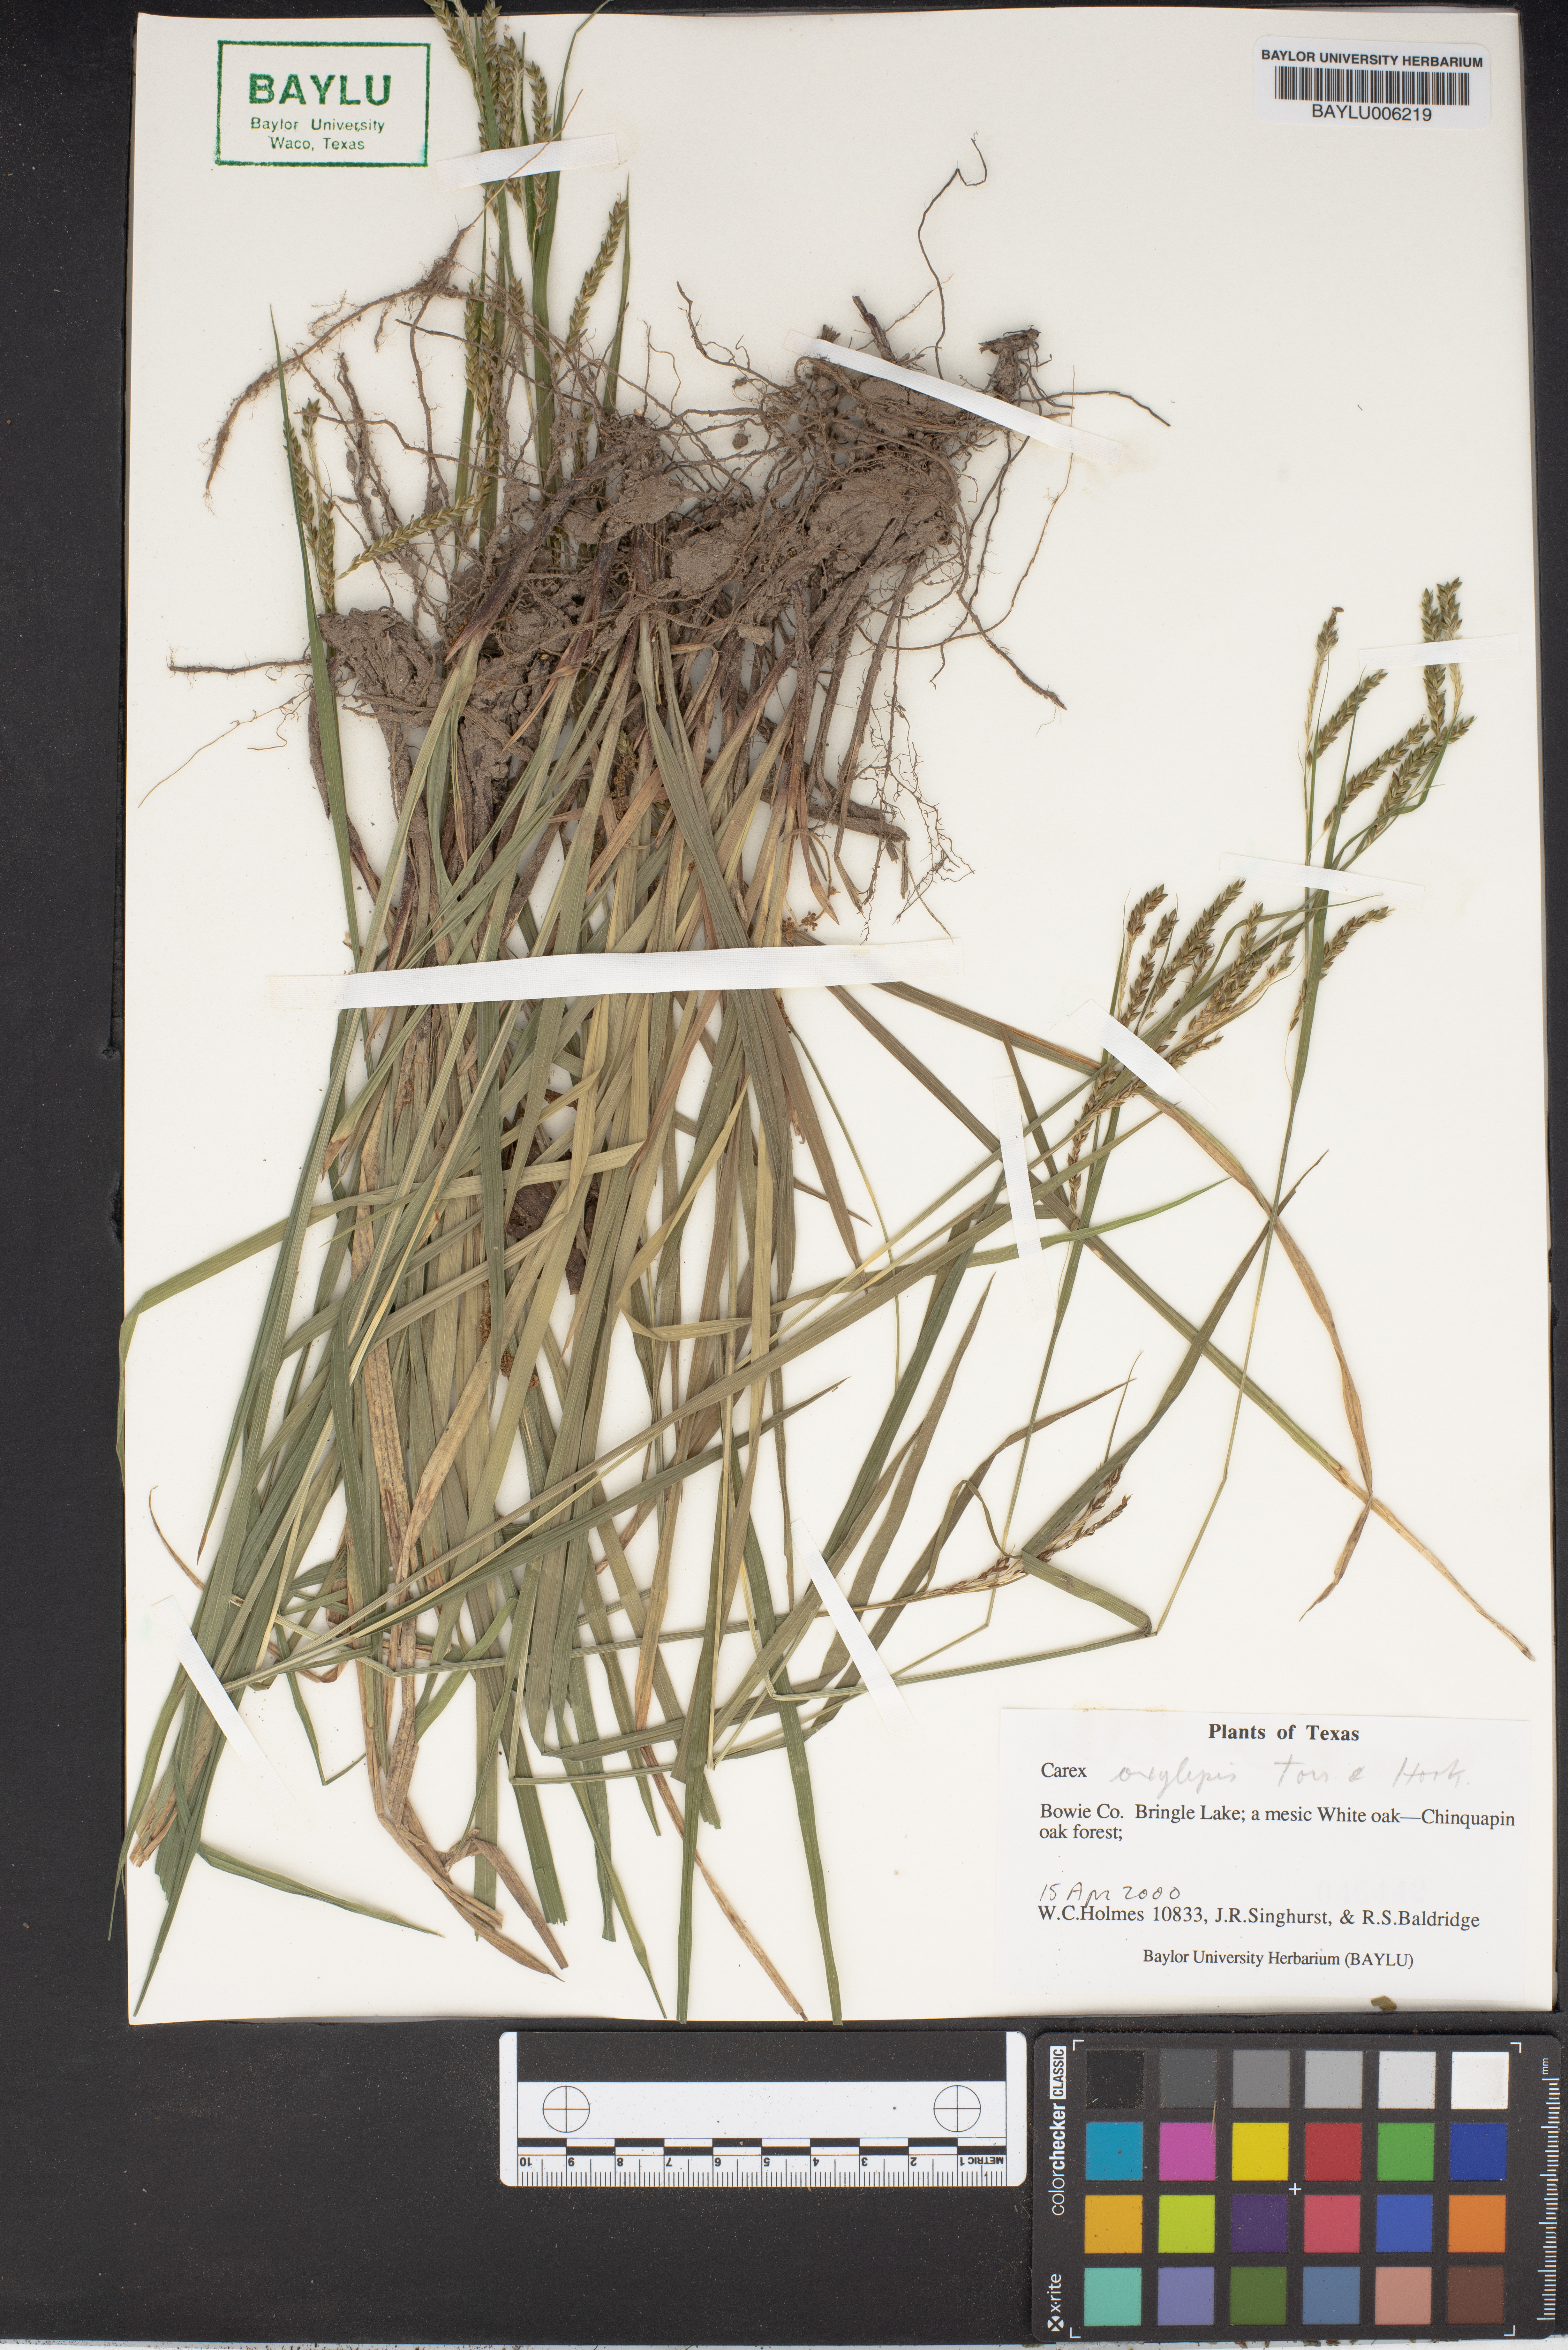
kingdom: Plantae
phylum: Tracheophyta
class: Liliopsida
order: Poales
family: Cyperaceae
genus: Carex
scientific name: Carex oxylepis
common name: Sharpscale sedge
